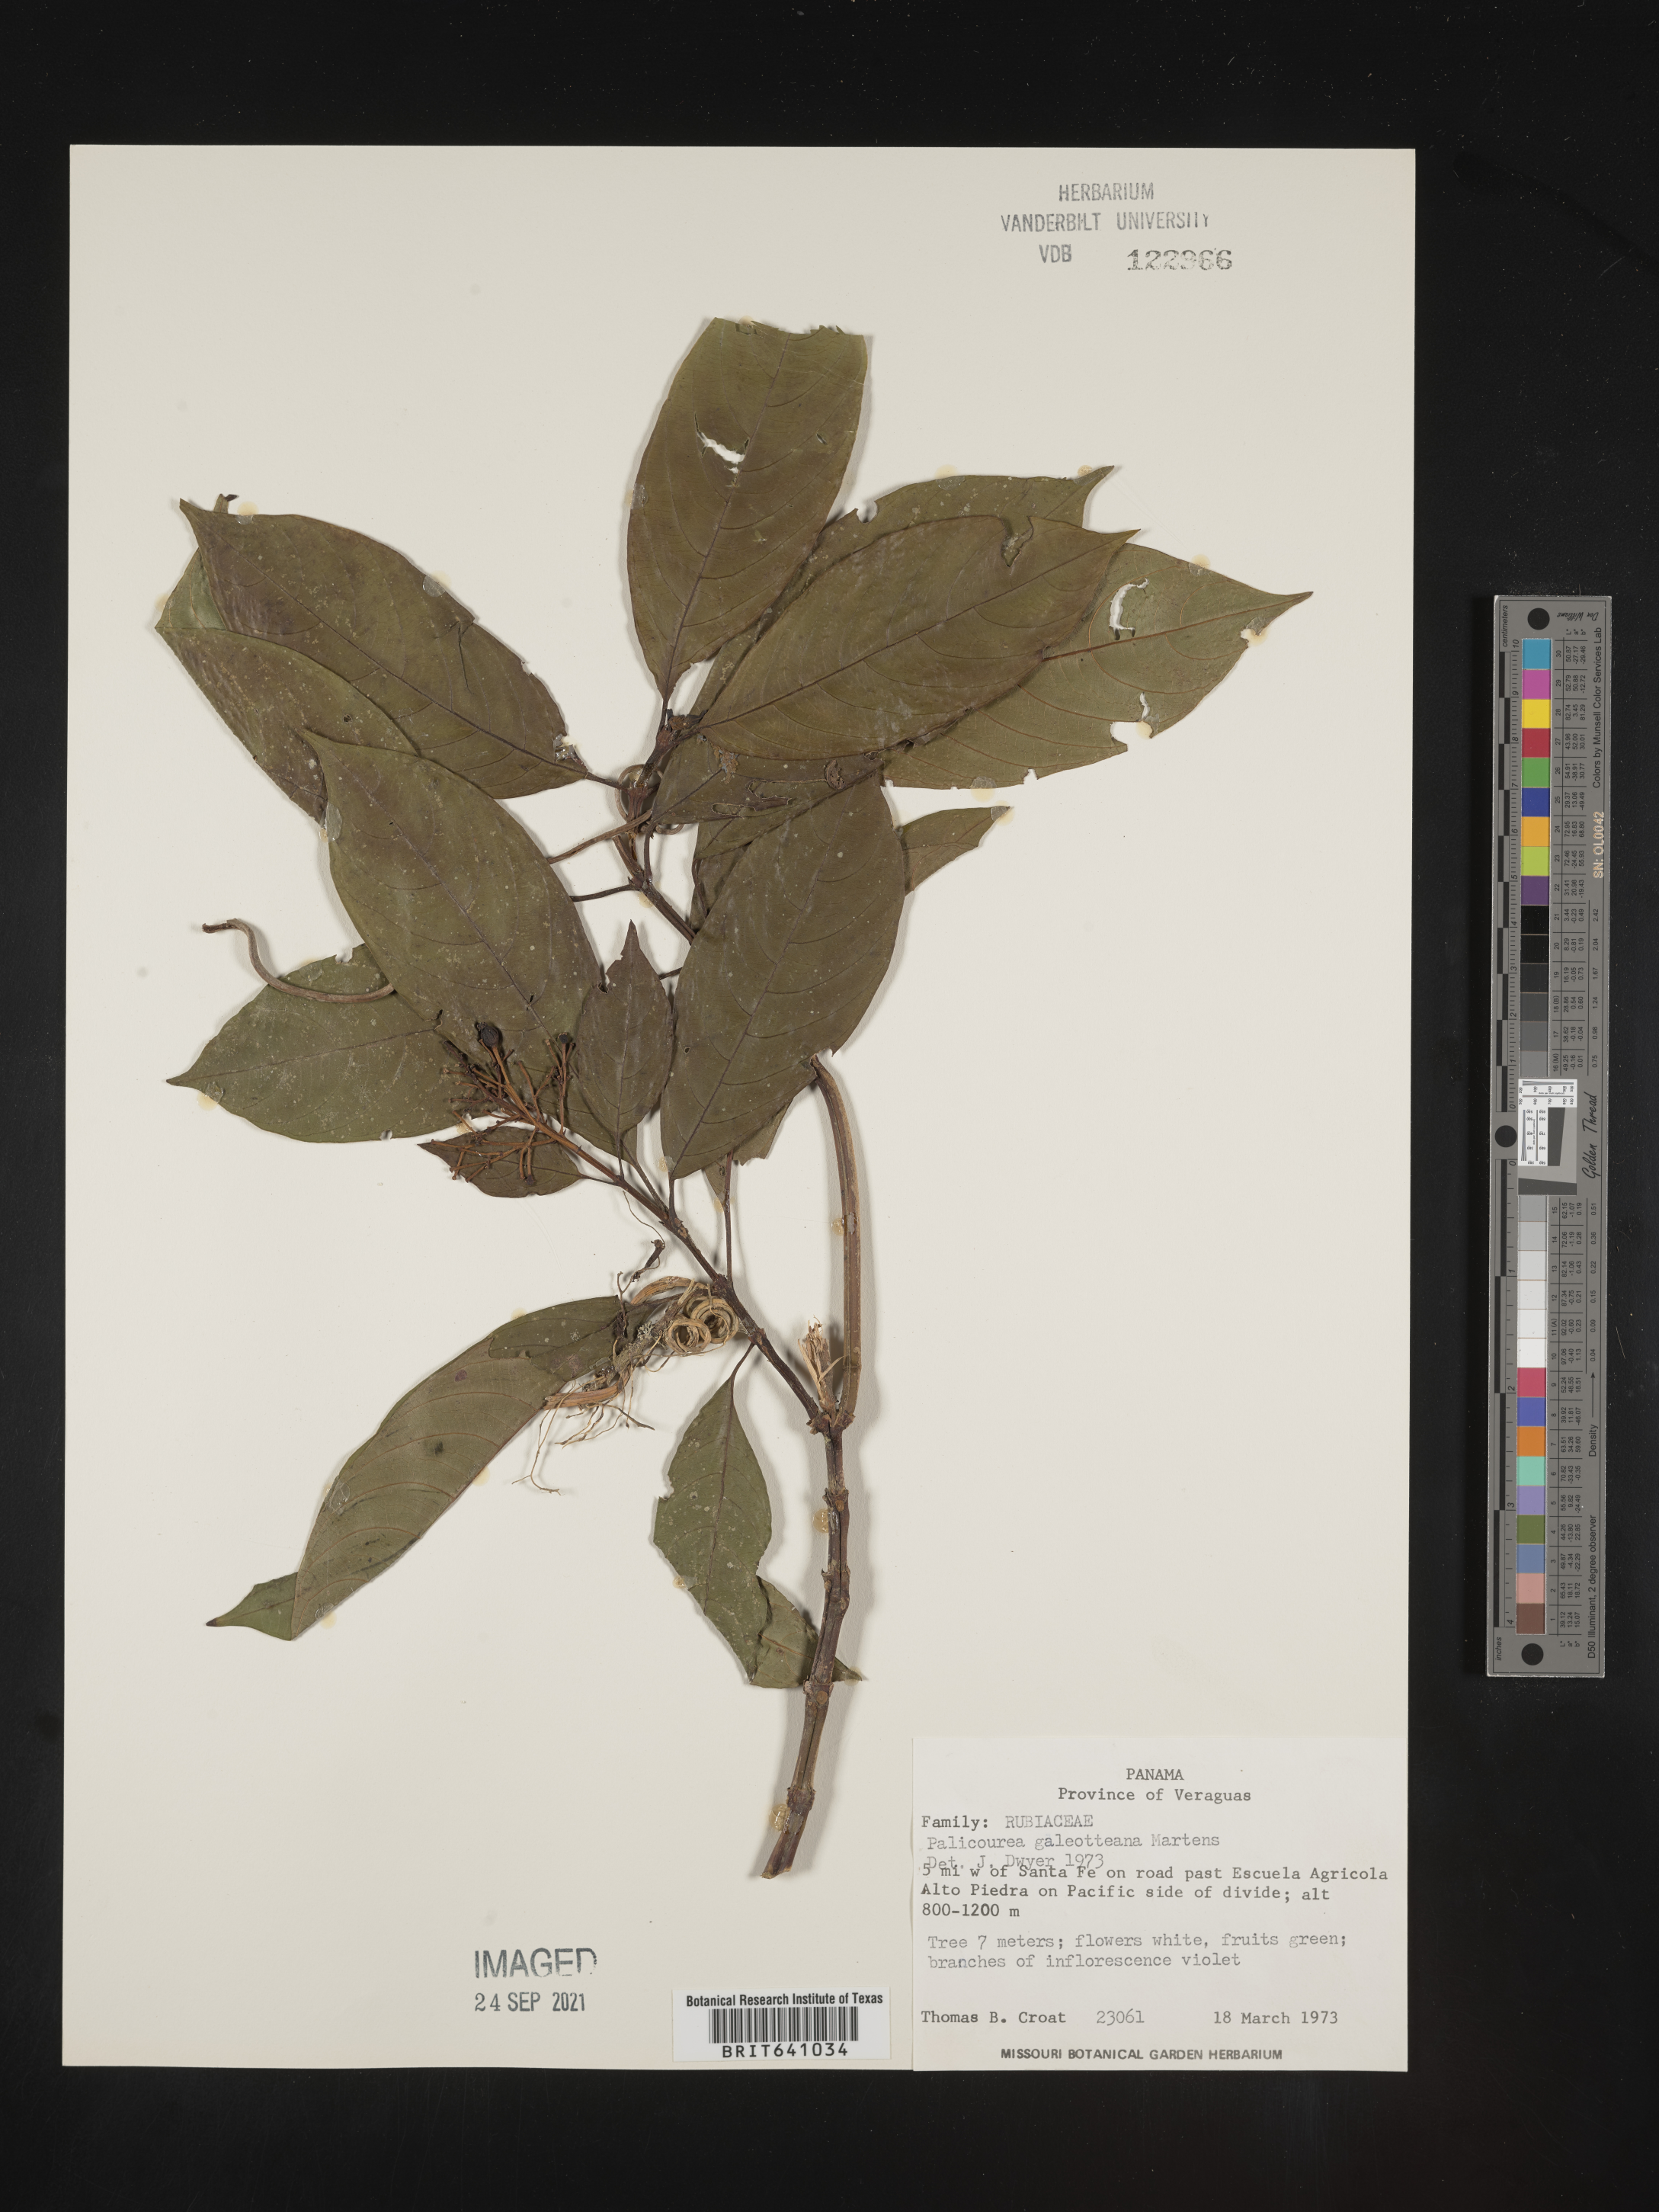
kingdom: Plantae
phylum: Tracheophyta
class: Magnoliopsida
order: Gentianales
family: Rubiaceae
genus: Palicourea
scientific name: Palicourea galeottiana
